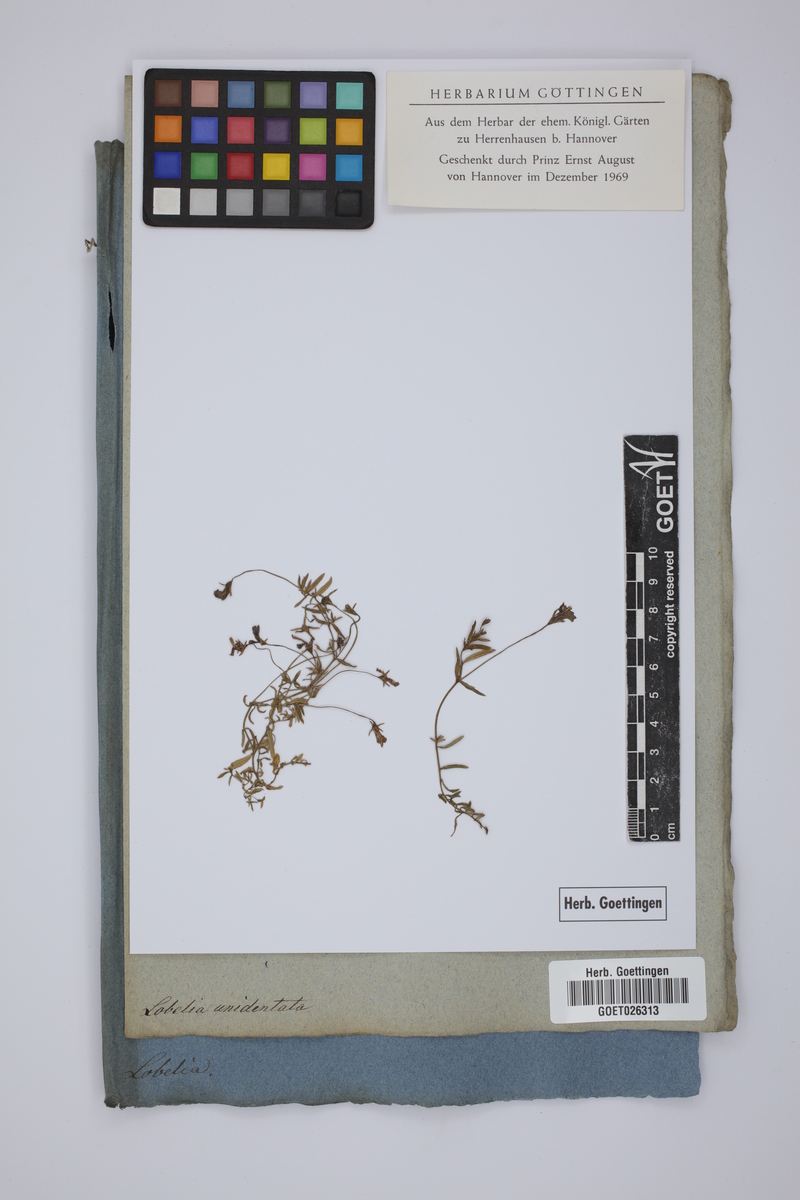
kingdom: Plantae
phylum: Tracheophyta
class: Magnoliopsida
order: Asterales
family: Campanulaceae
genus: Monopsis
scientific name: Monopsis unidentata
